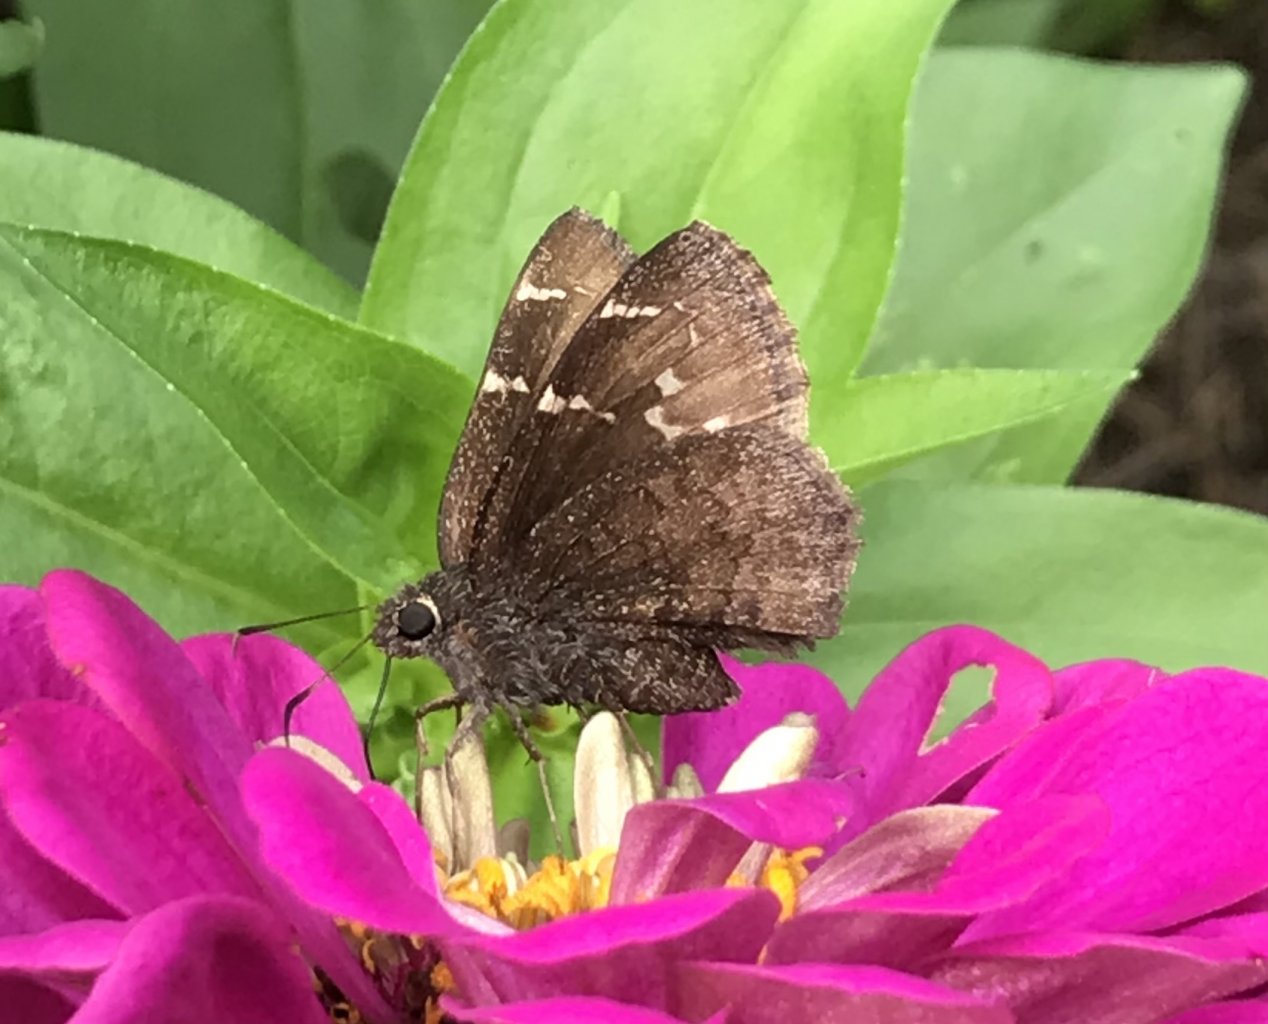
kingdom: Animalia
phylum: Arthropoda
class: Insecta
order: Lepidoptera
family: Hesperiidae
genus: Thorybes
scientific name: Thorybes mexicana
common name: Confused Cloudywing
